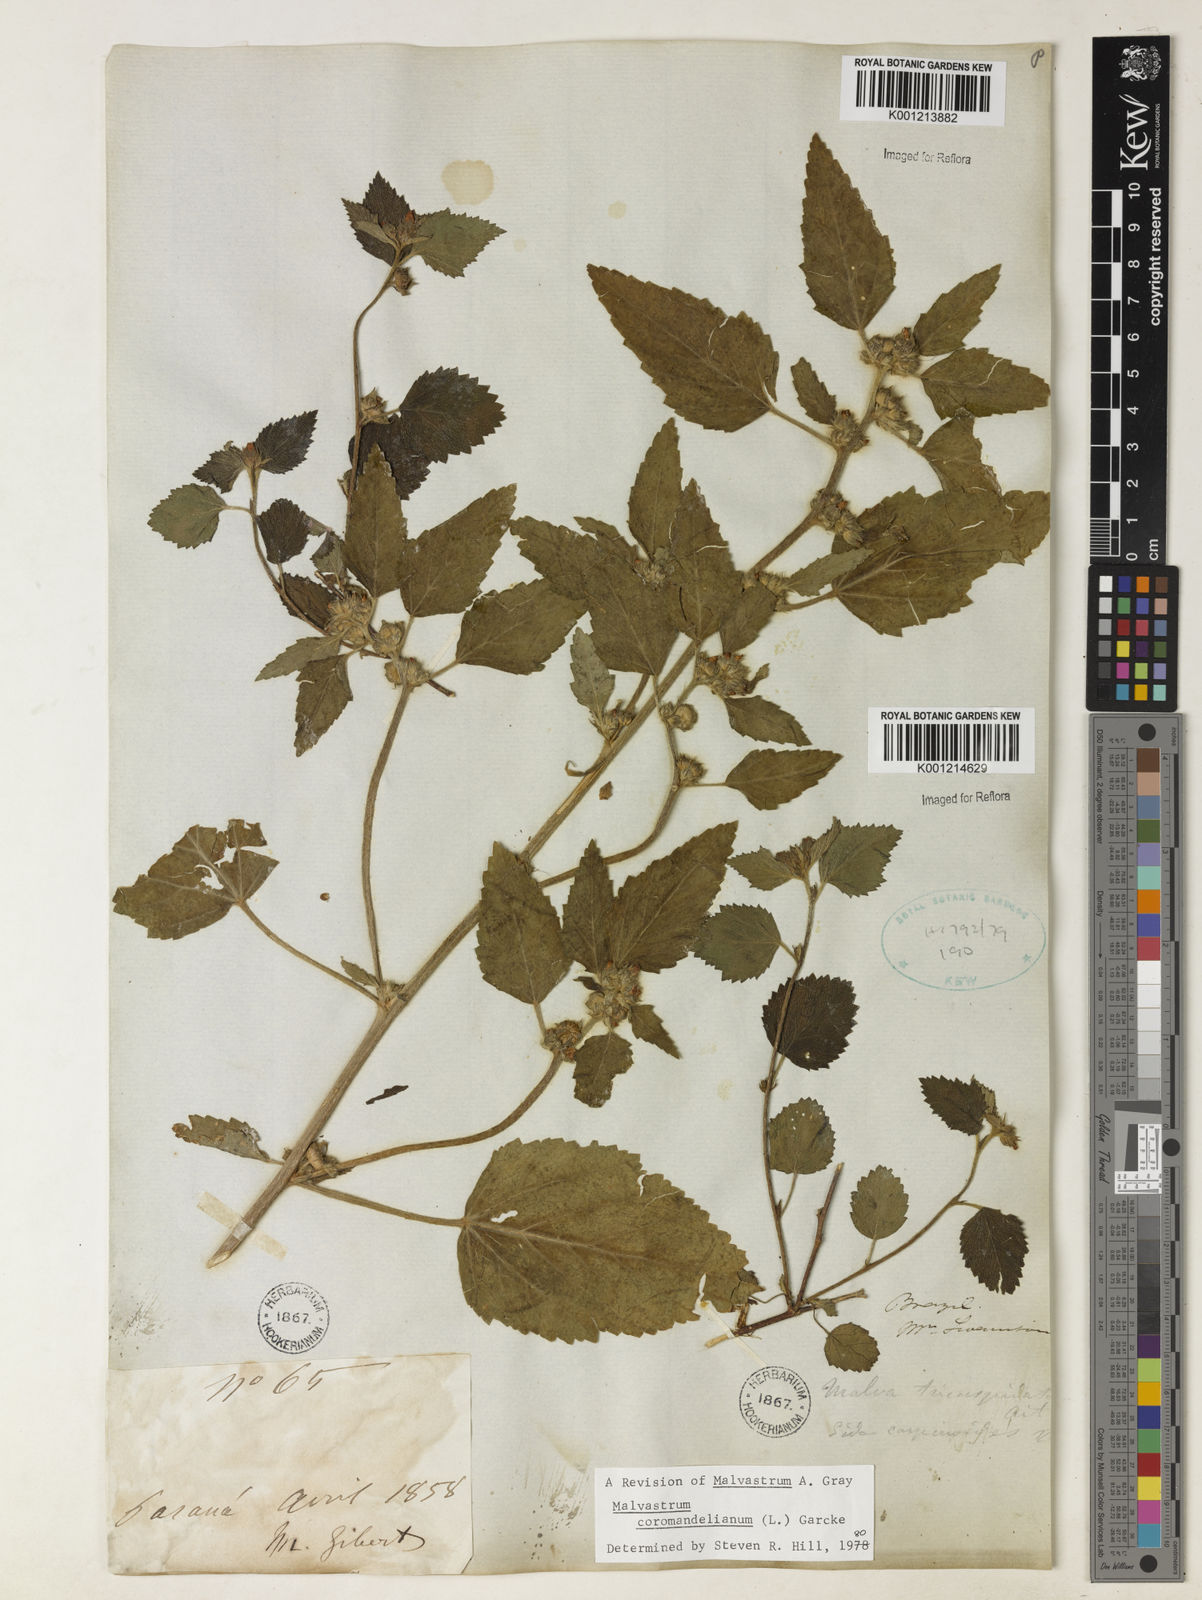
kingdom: Plantae
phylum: Tracheophyta
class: Magnoliopsida
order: Malvales
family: Malvaceae
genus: Malvastrum
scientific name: Malvastrum coromandelianum
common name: Threelobe false mallow
